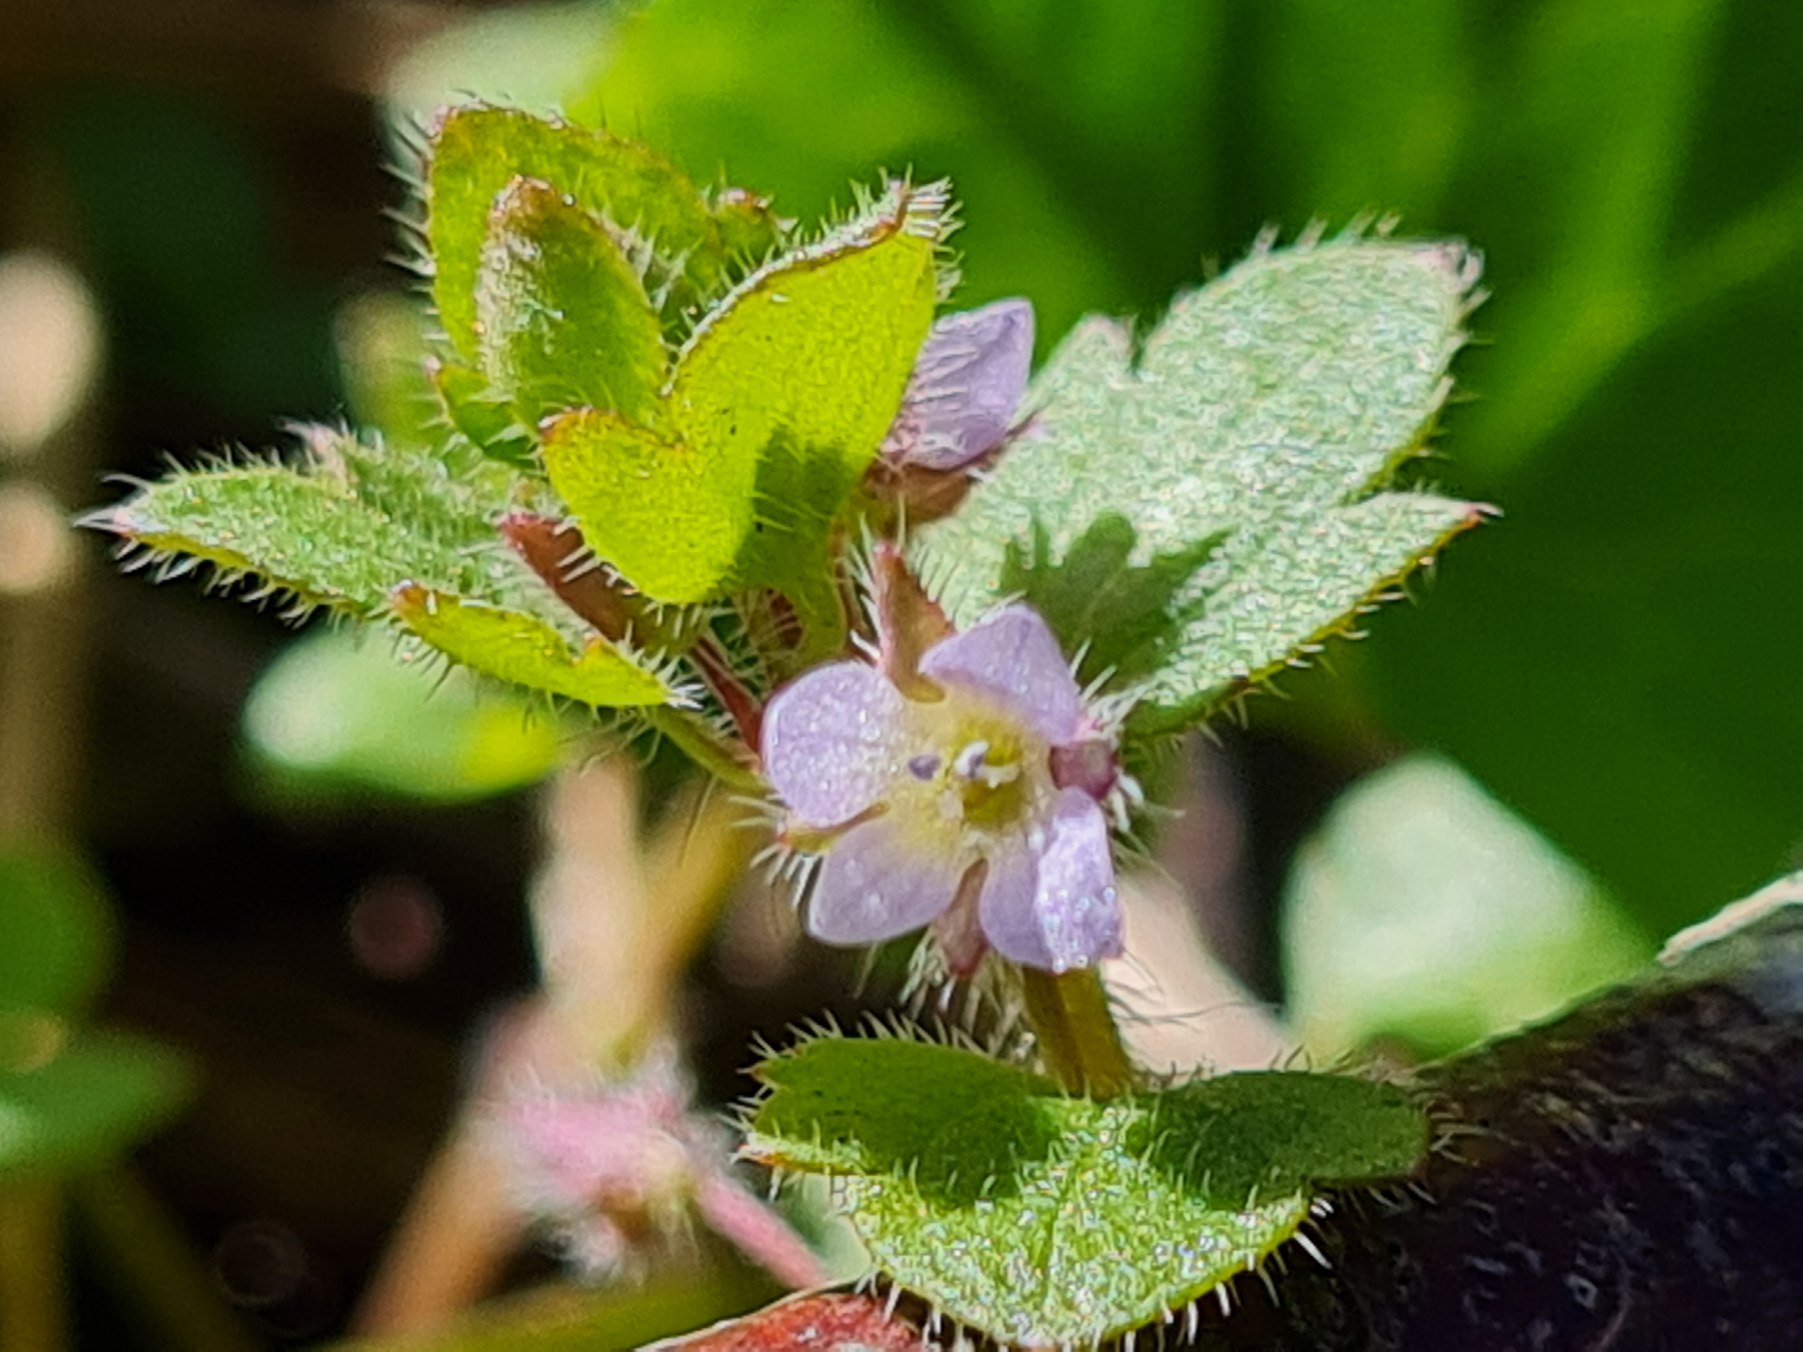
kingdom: Plantae
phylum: Tracheophyta
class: Magnoliopsida
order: Lamiales
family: Plantaginaceae
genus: Veronica
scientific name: Veronica hederifolia
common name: Vedbend-ærenpris
